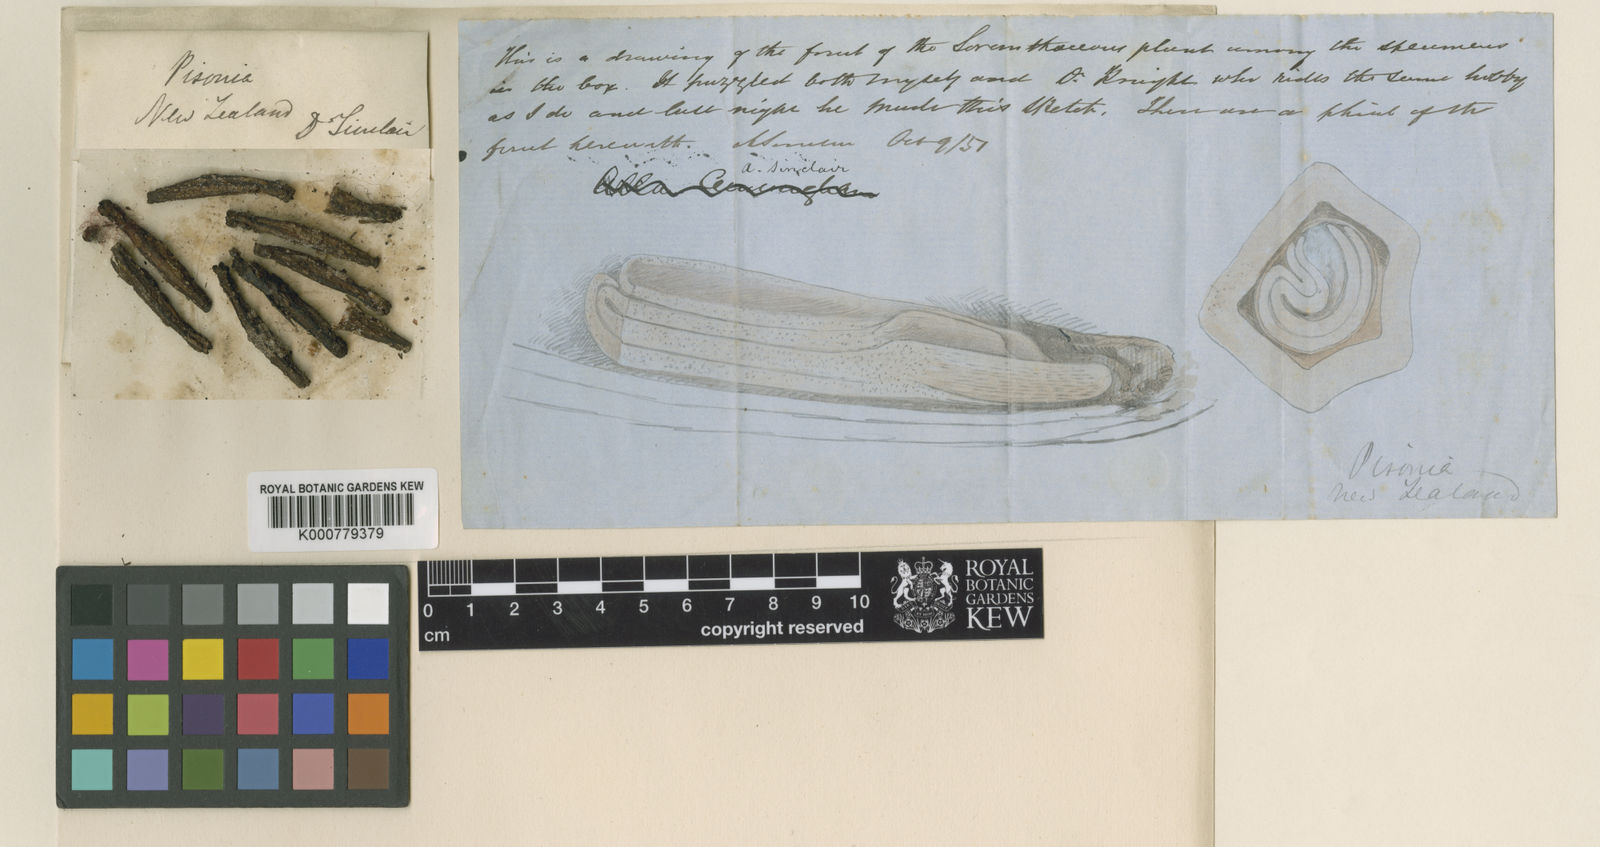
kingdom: Plantae
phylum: Tracheophyta
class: Magnoliopsida
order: Caryophyllales
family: Nyctaginaceae
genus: Ceodes
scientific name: Ceodes brunoniana
